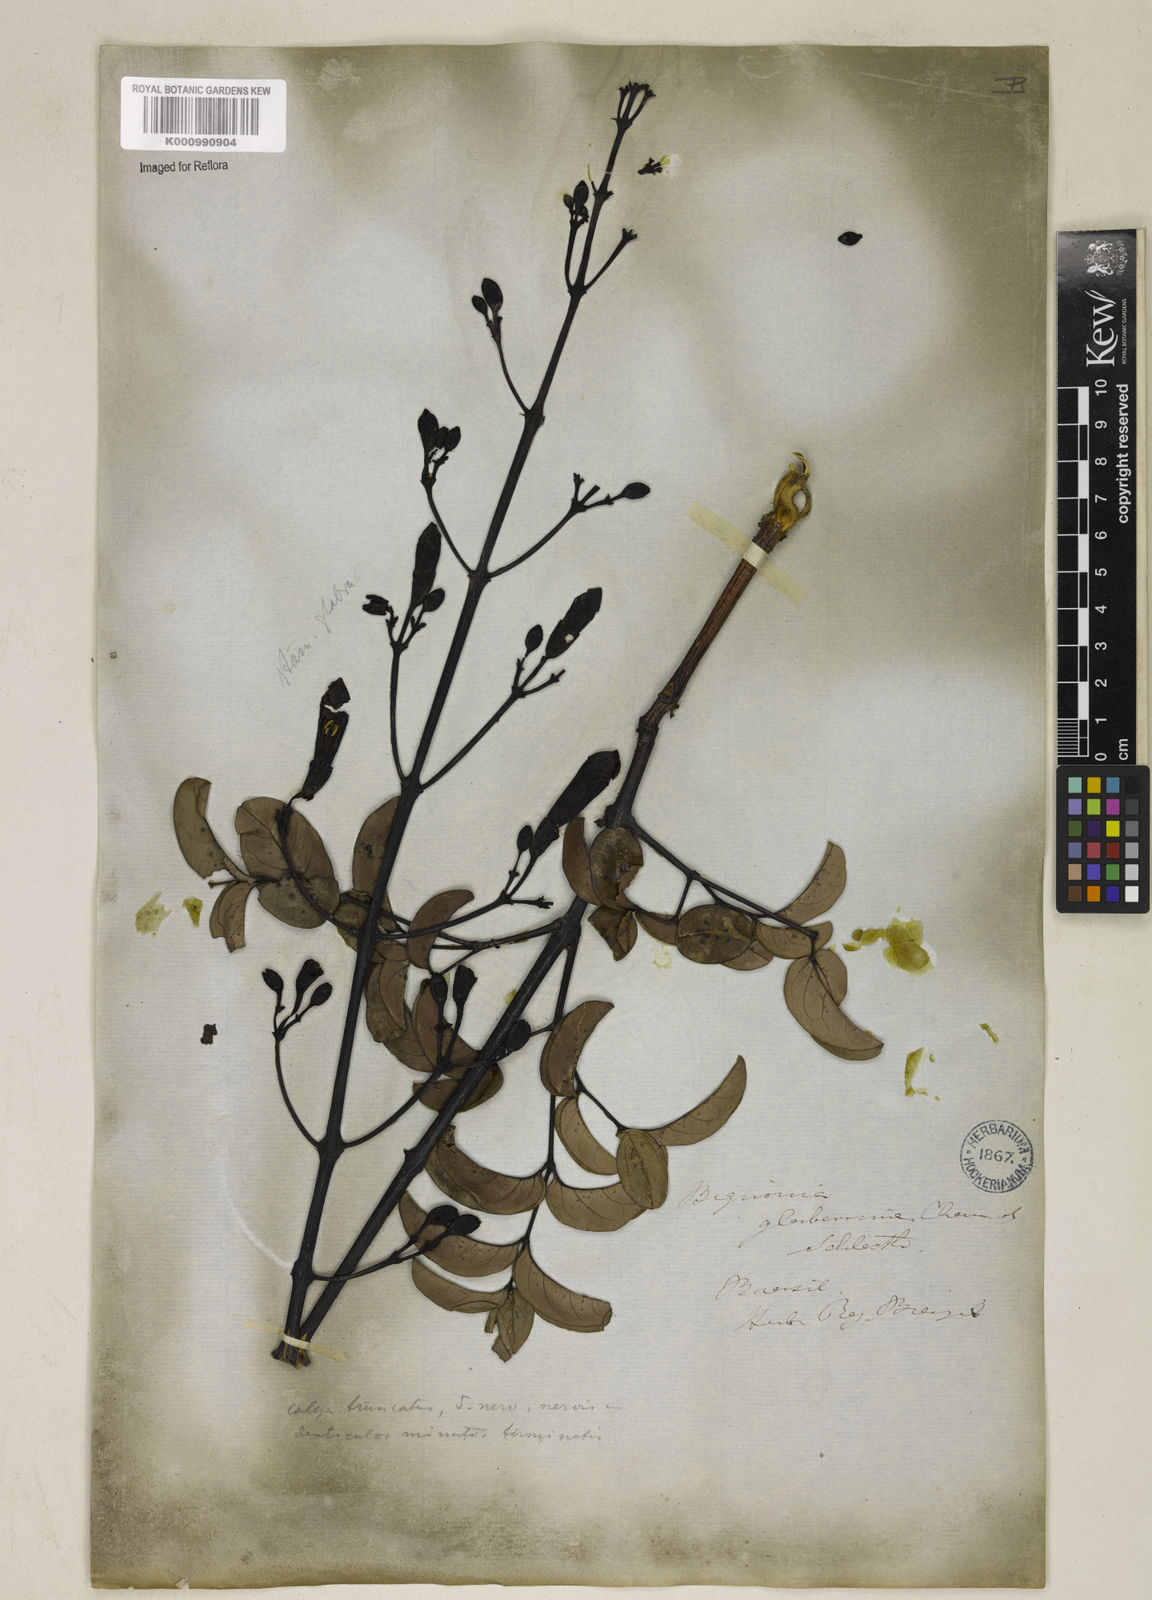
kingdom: Plantae
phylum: Tracheophyta
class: Magnoliopsida
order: Lamiales
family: Bignoniaceae
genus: Adenocalymma
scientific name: Adenocalymma pedunculatum
